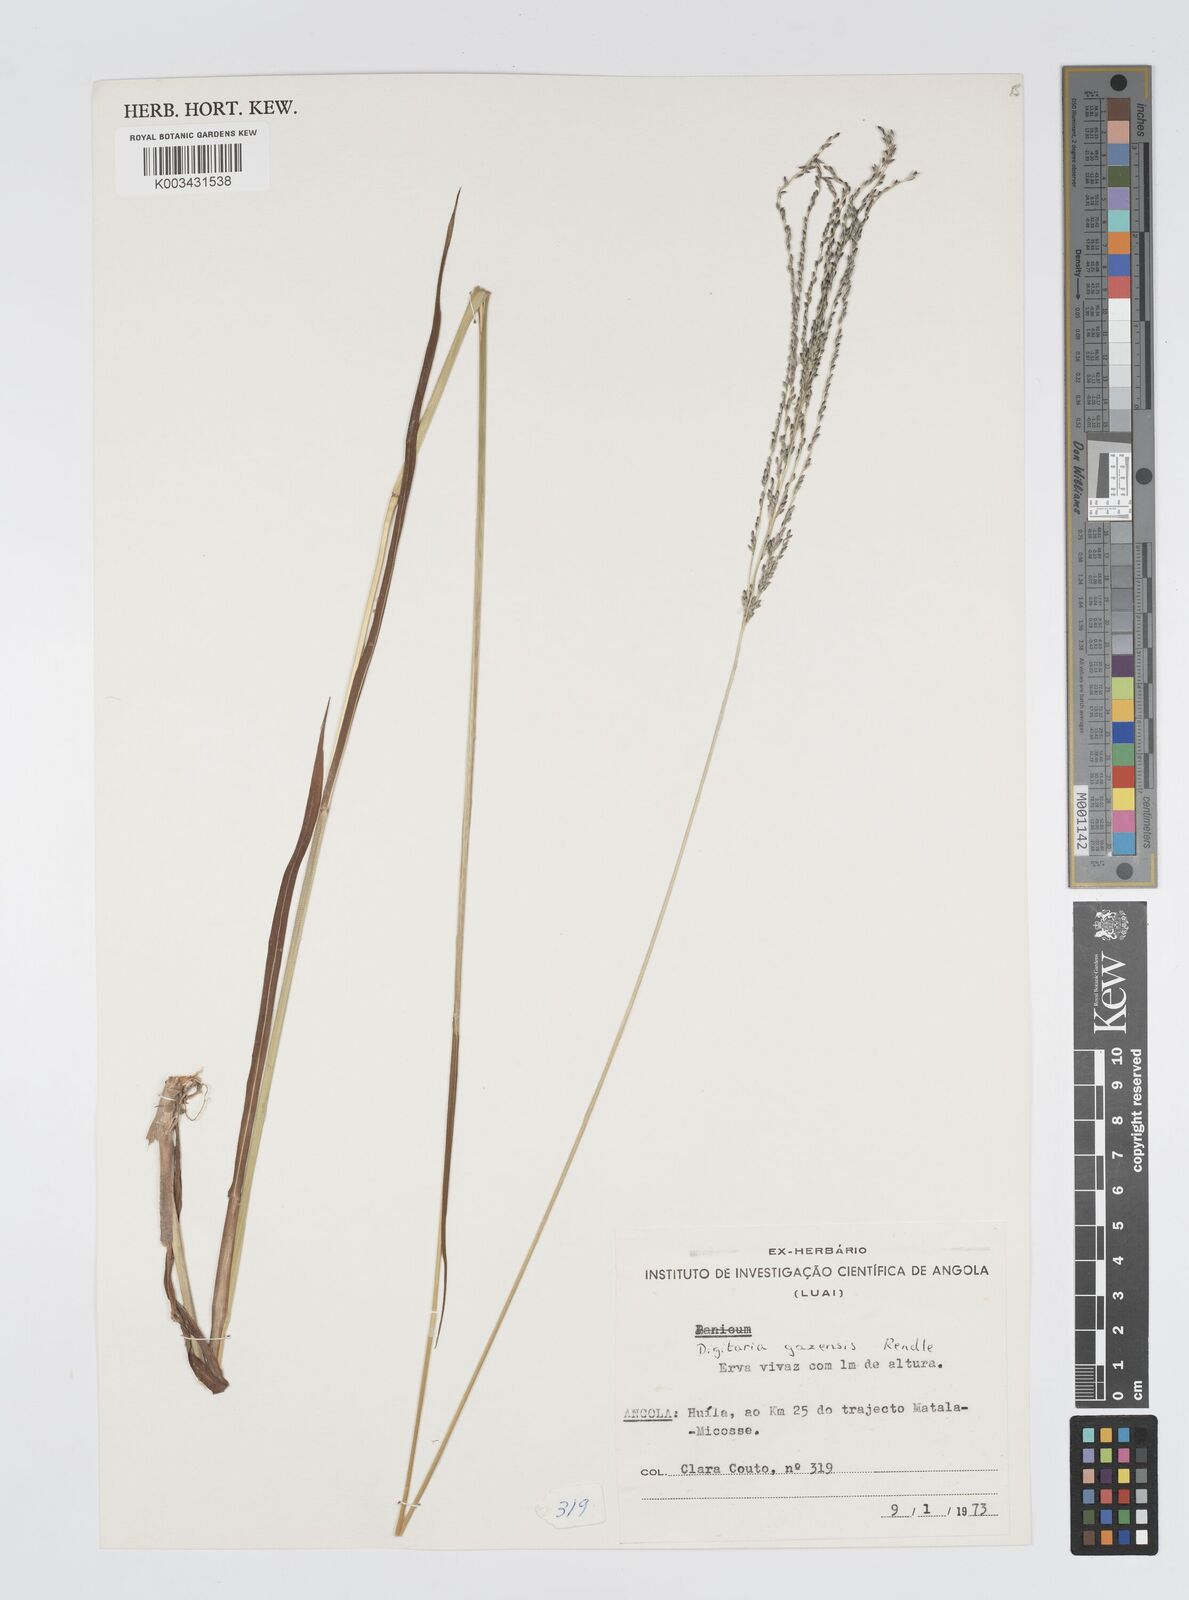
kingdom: Plantae
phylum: Tracheophyta
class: Liliopsida
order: Poales
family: Poaceae
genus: Digitaria
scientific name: Digitaria gazensis
